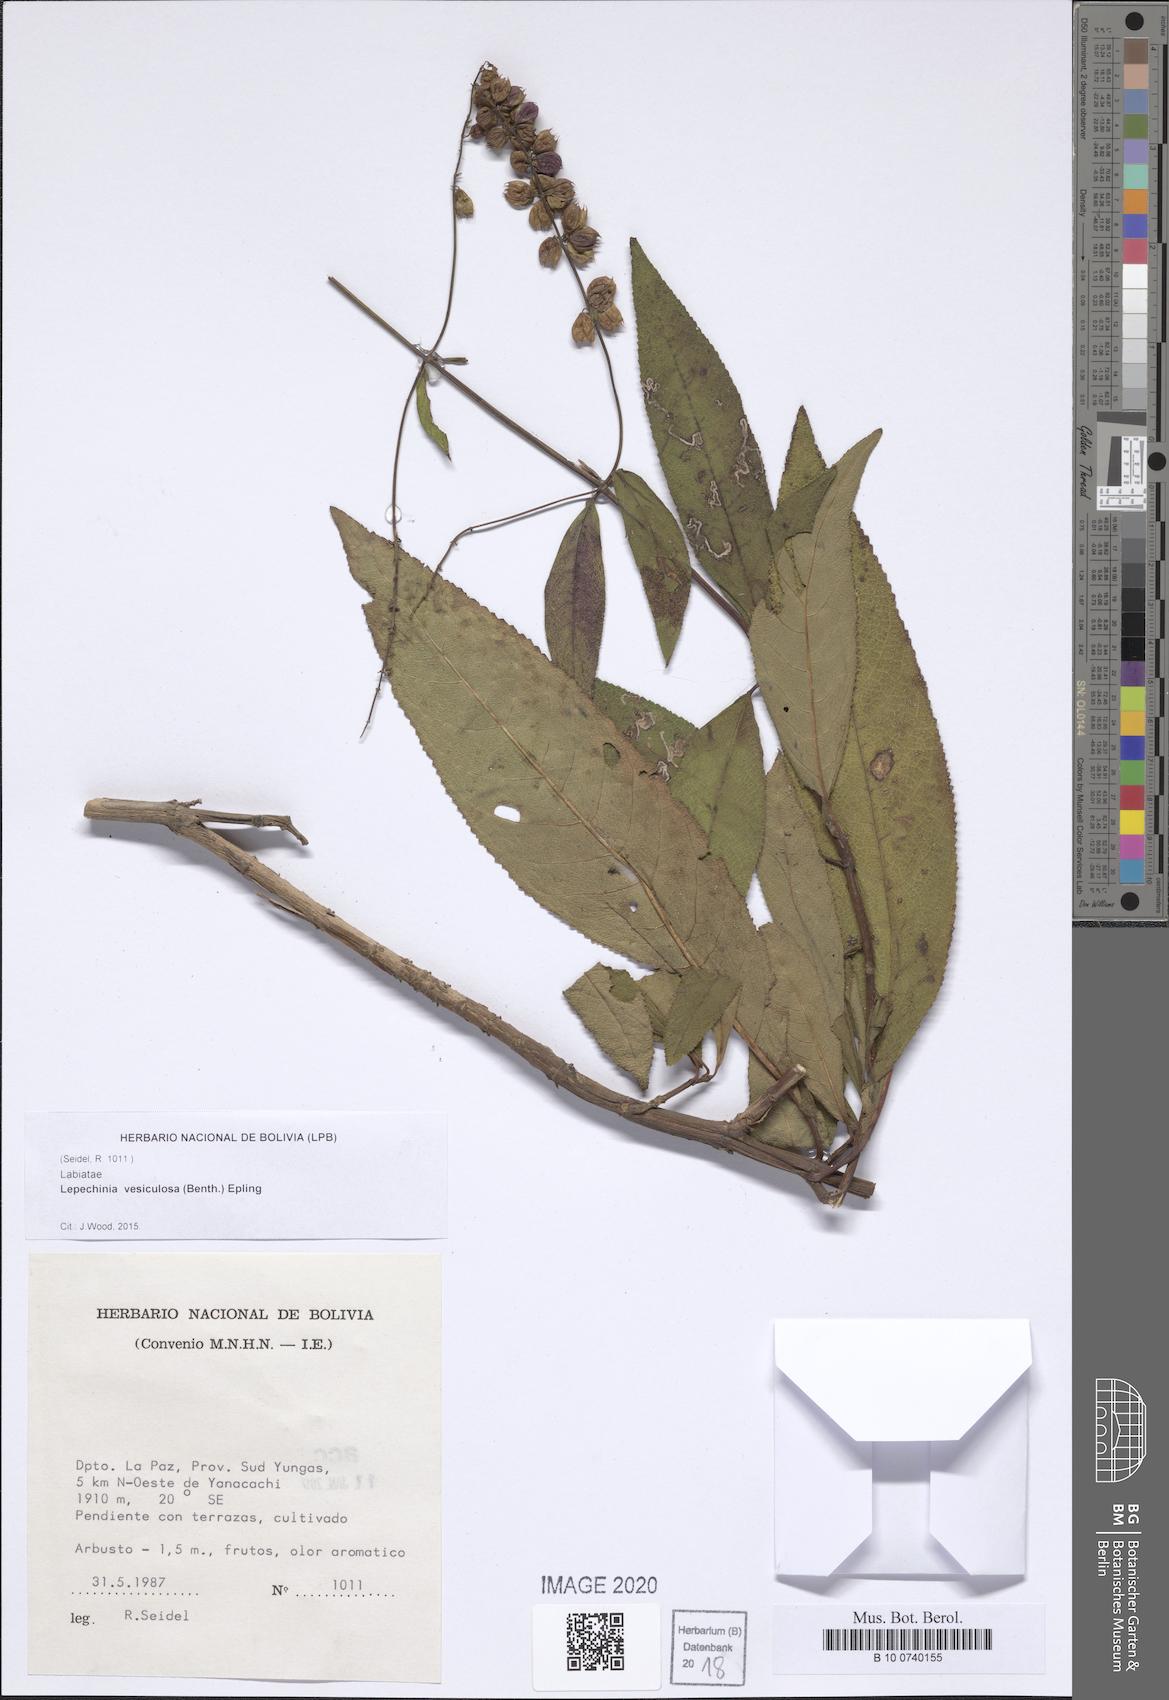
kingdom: Plantae
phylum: Tracheophyta
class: Magnoliopsida
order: Lamiales
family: Lamiaceae
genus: Lepechinia
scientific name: Lepechinia vesiculosa
